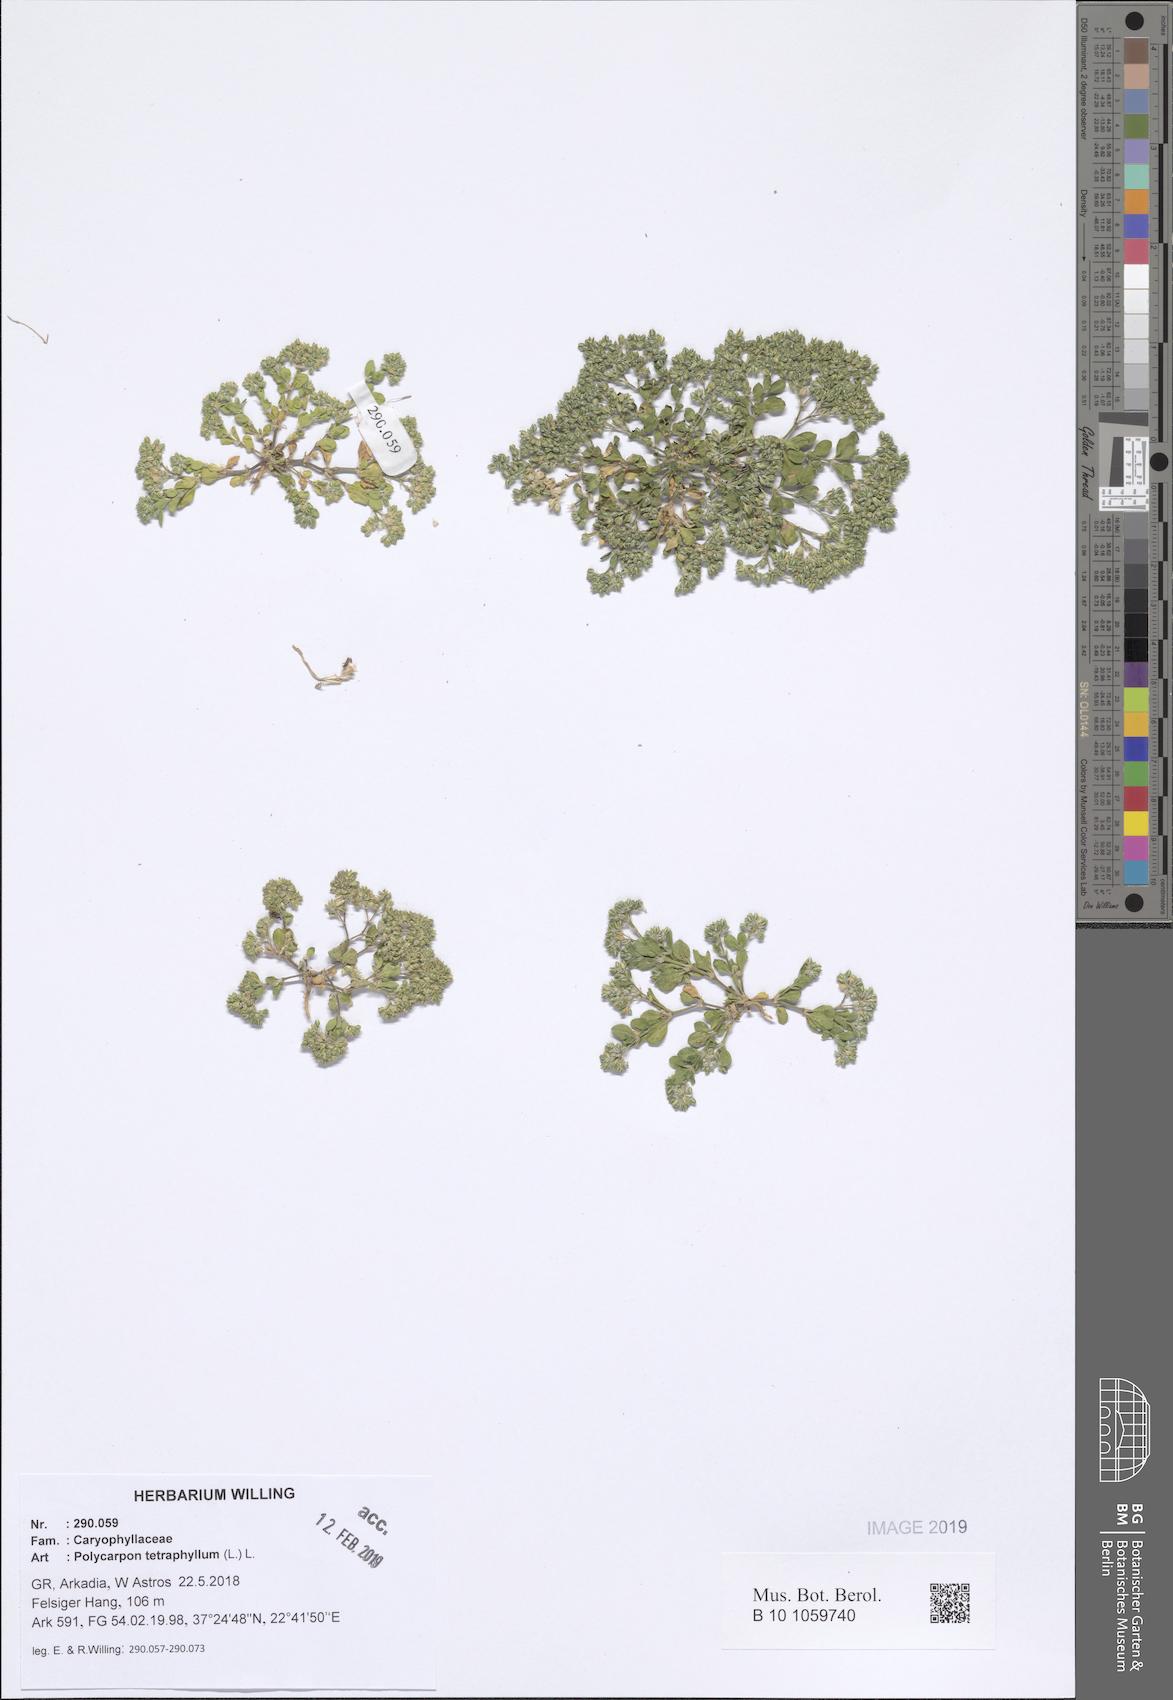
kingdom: Plantae
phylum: Tracheophyta
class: Magnoliopsida
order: Caryophyllales
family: Caryophyllaceae
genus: Polycarpon
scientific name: Polycarpon tetraphyllum
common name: Four-leaved all-seed
